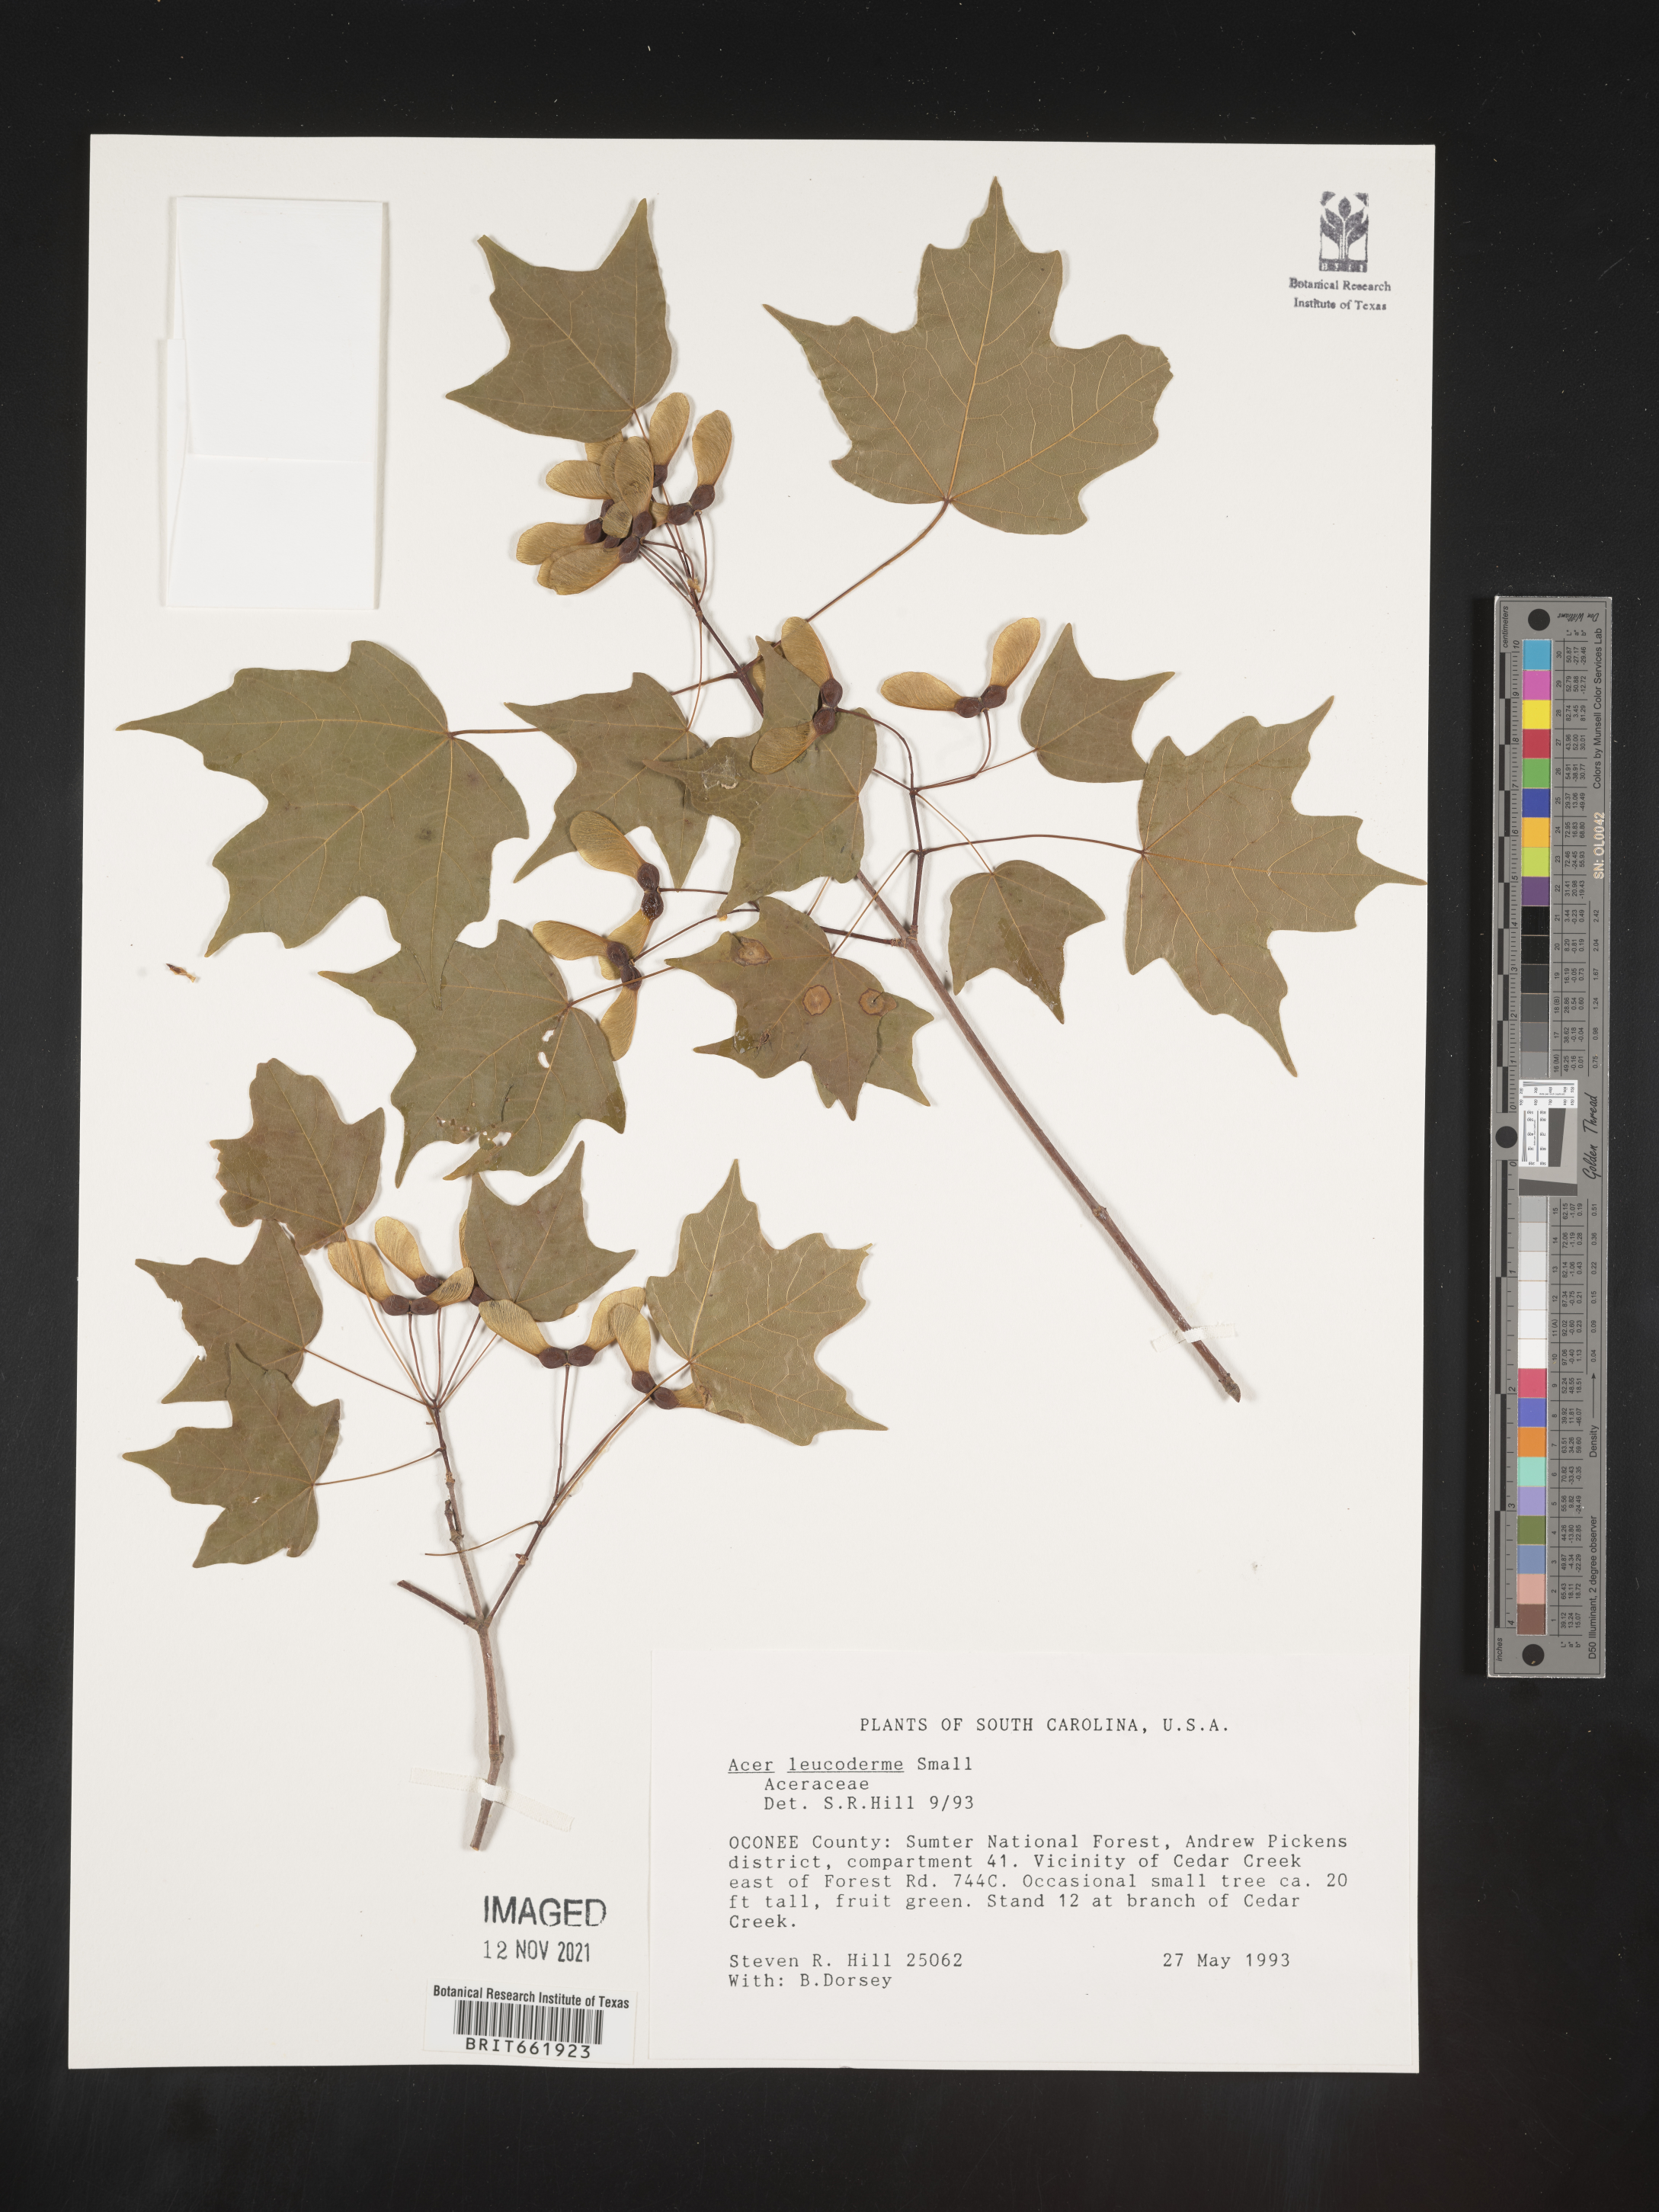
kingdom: Plantae
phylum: Tracheophyta
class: Magnoliopsida
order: Sapindales
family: Sapindaceae
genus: Acer
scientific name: Acer leucoderme
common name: Chalk maple
